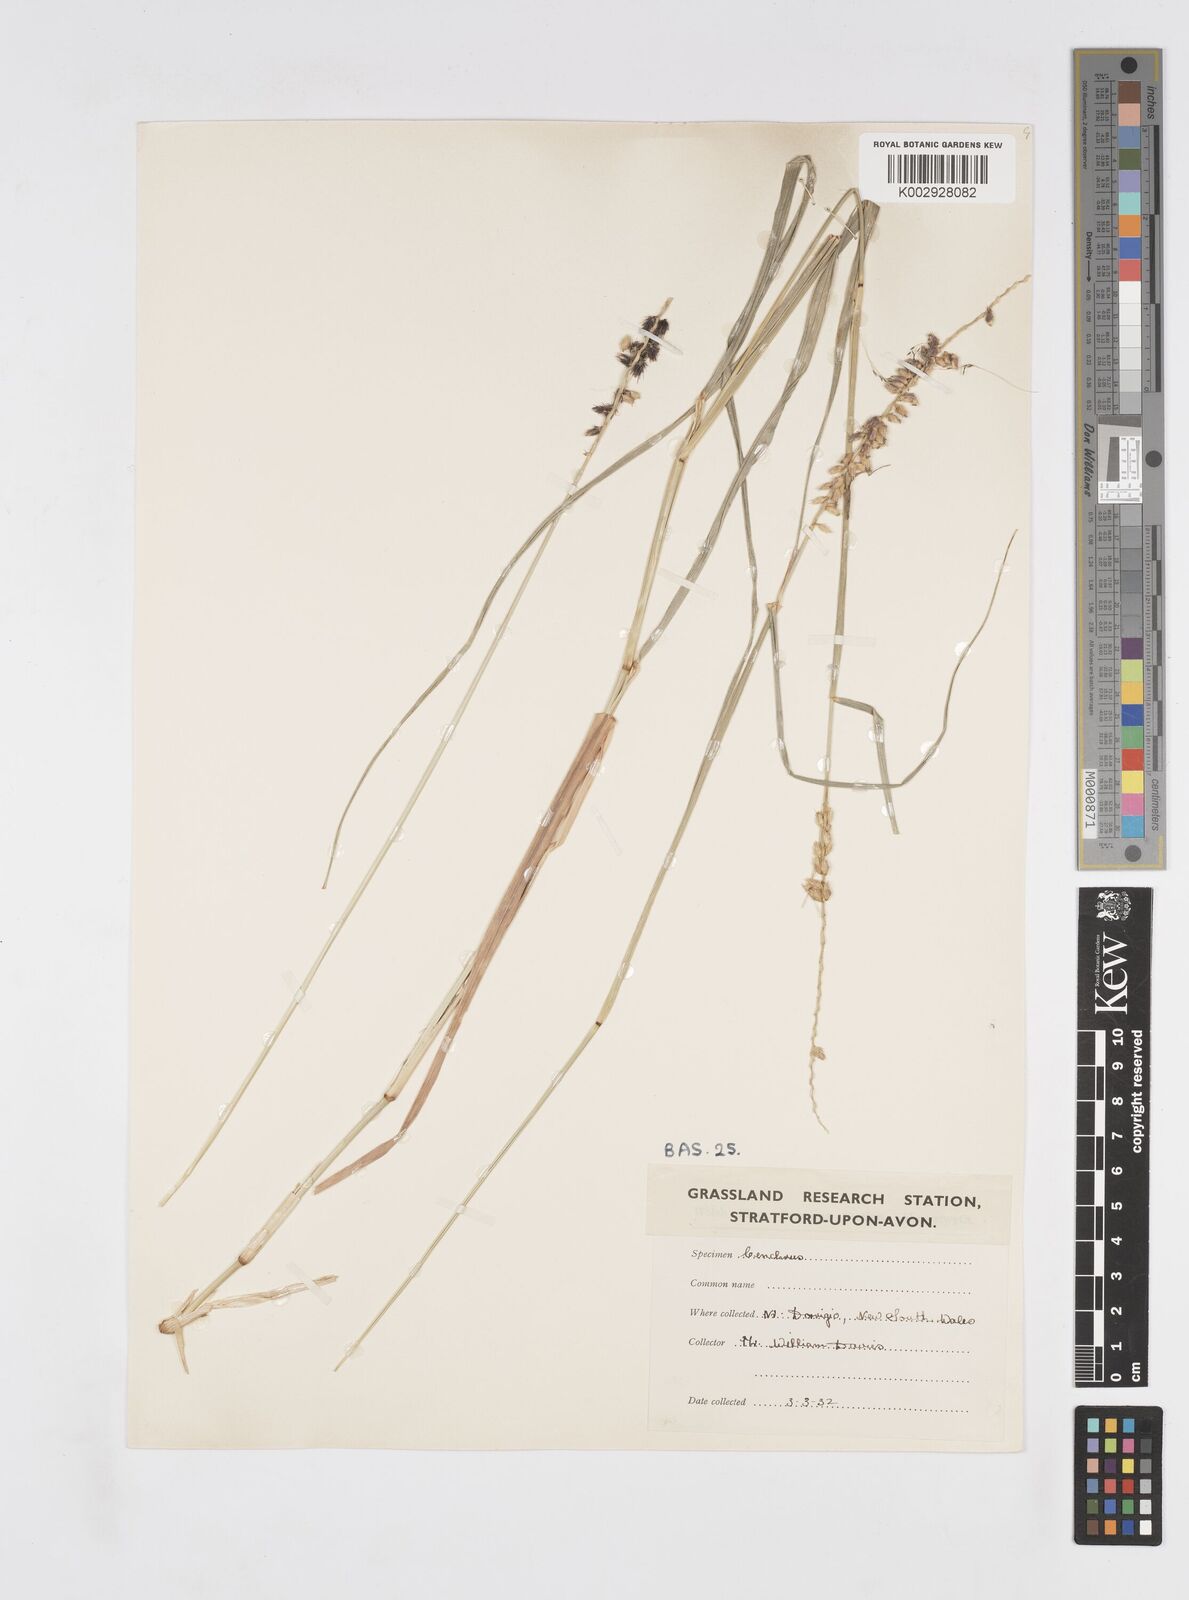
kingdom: Plantae
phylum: Tracheophyta
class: Liliopsida
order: Poales
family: Poaceae
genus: Cenchrus
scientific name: Cenchrus caliculatus
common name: Large bur grass
